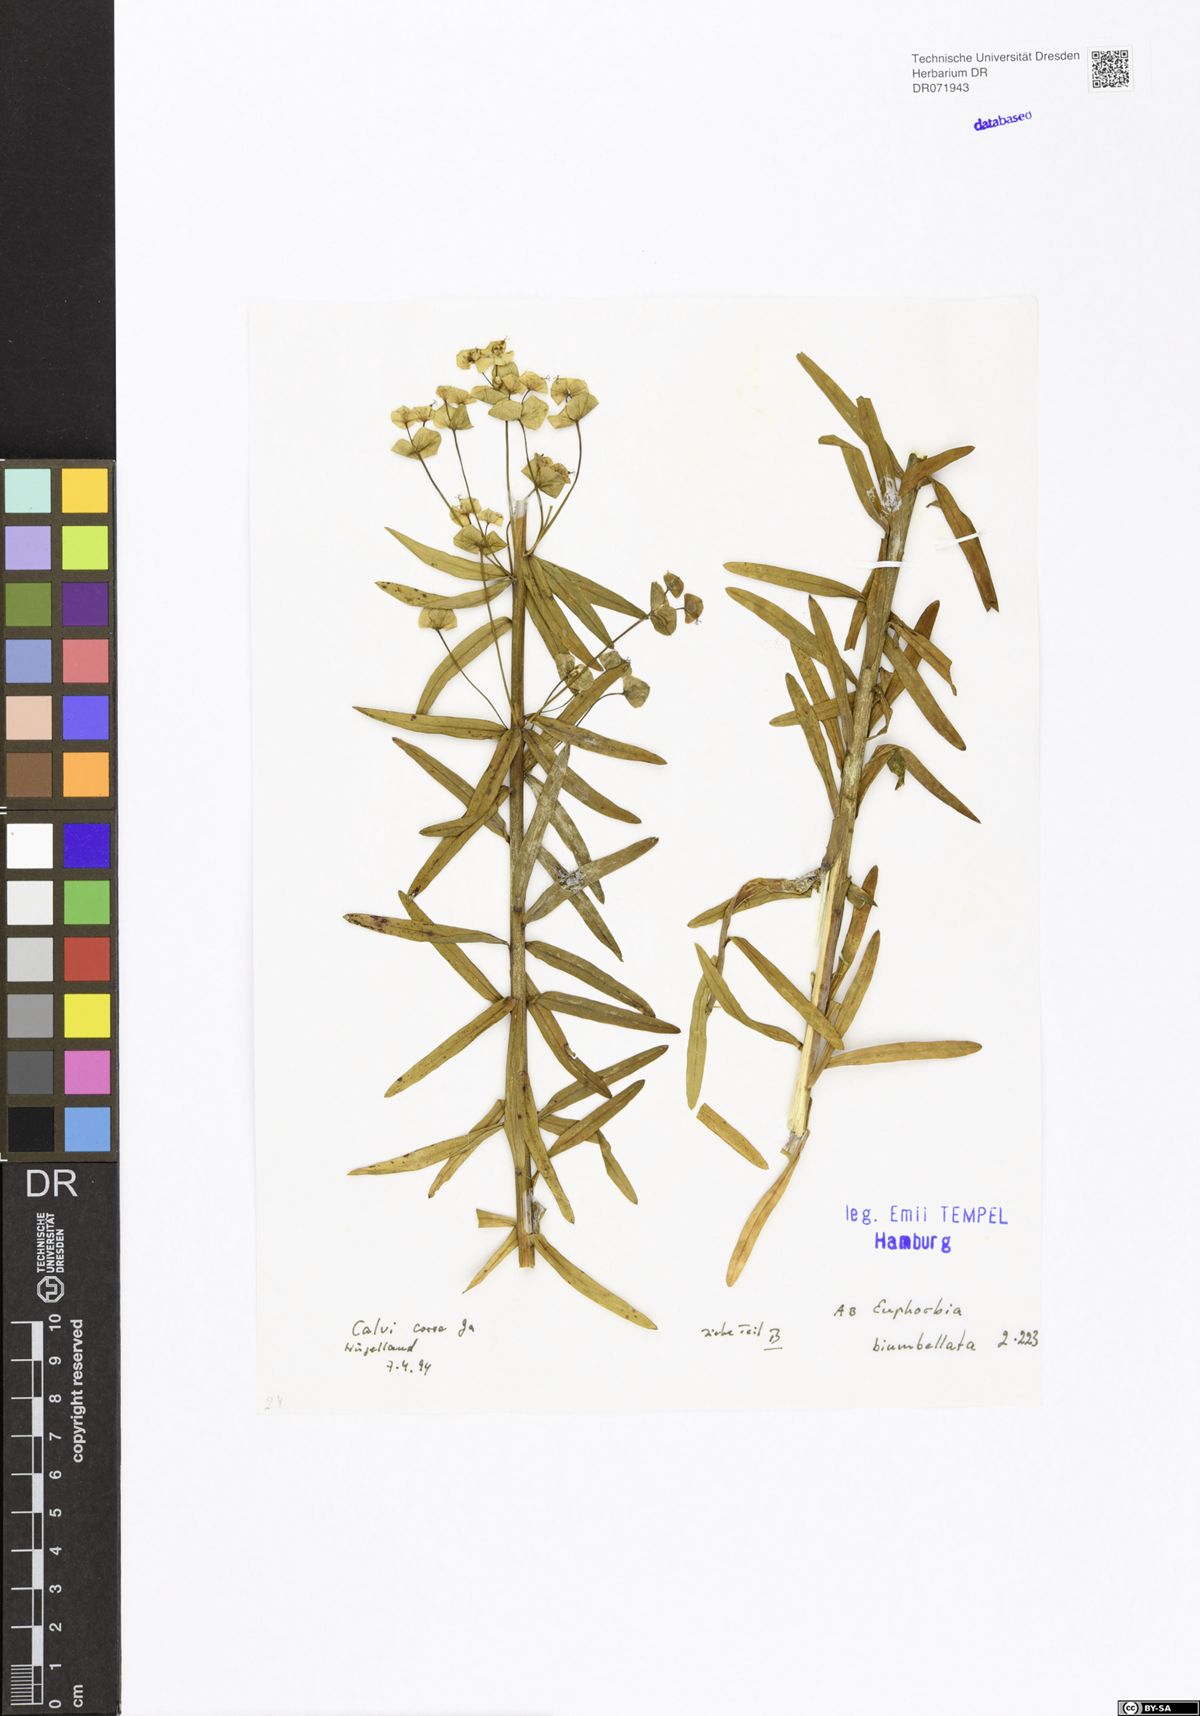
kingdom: Plantae
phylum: Tracheophyta
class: Magnoliopsida
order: Malpighiales
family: Euphorbiaceae
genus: Euphorbia
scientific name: Euphorbia biumbellata
